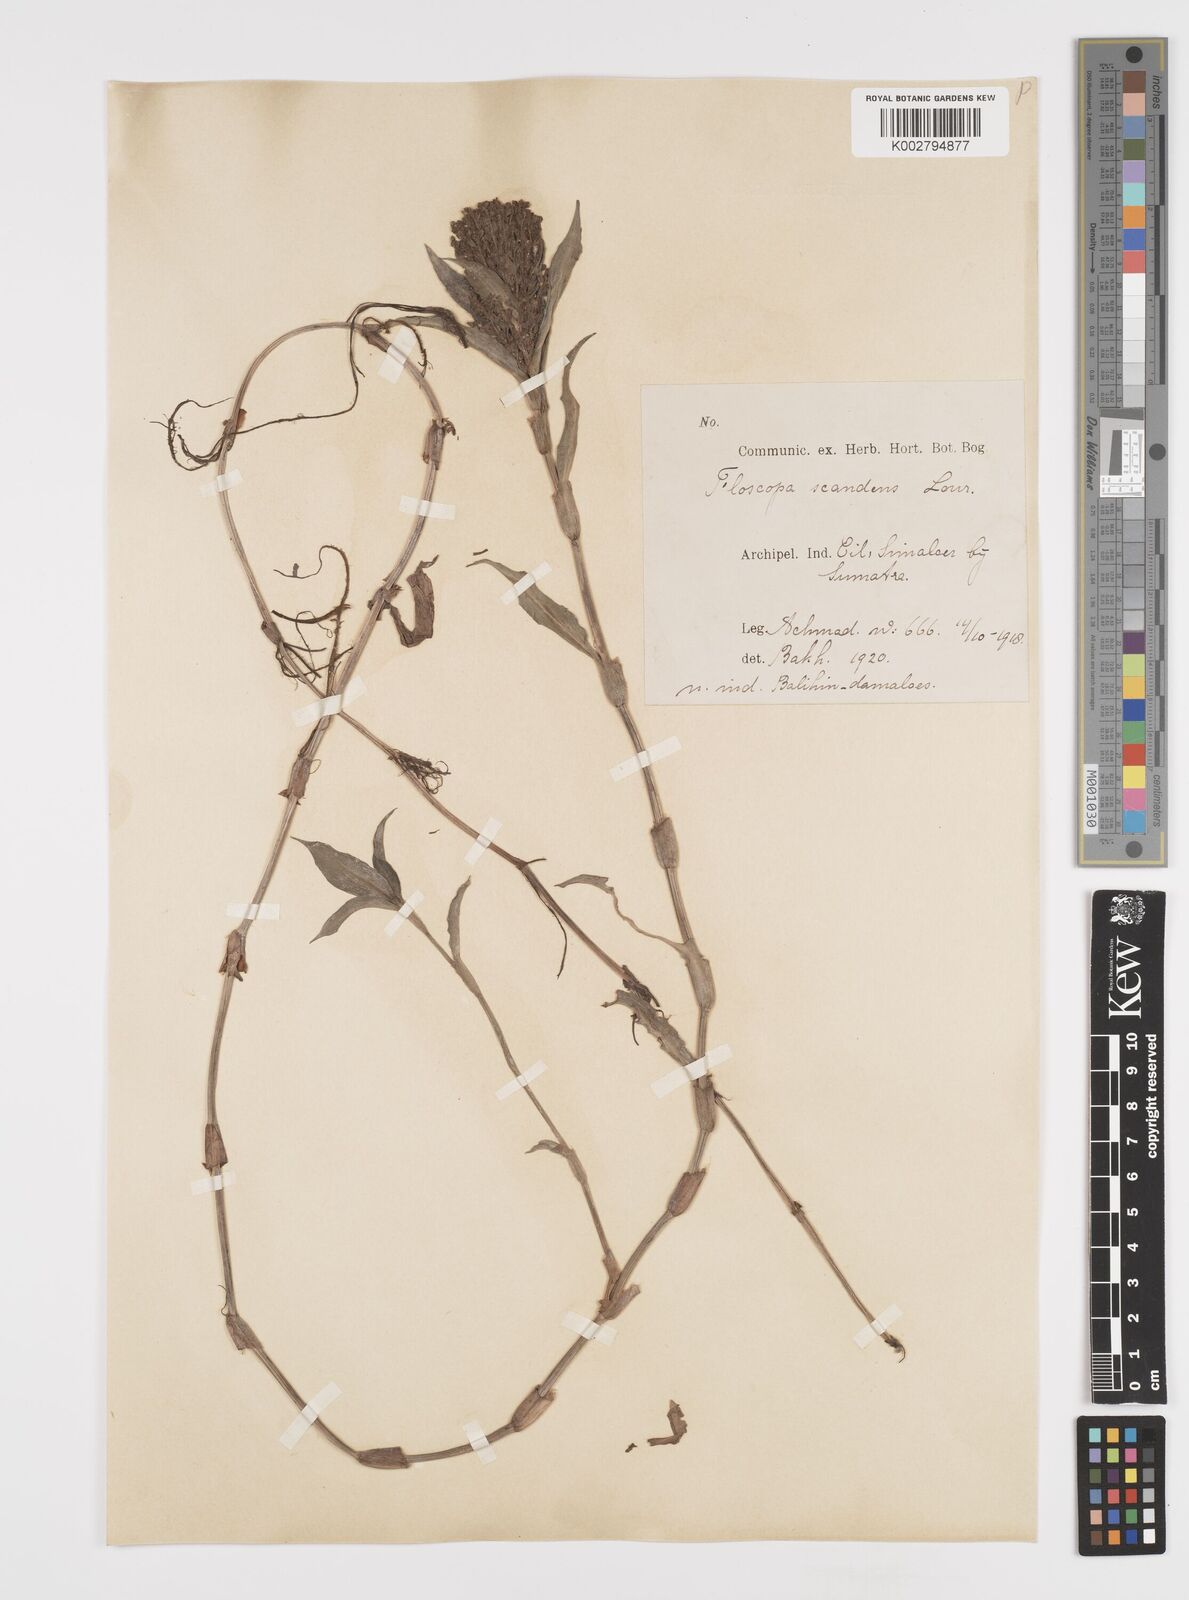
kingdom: Plantae
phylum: Tracheophyta
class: Liliopsida
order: Commelinales
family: Commelinaceae
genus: Floscopa
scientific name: Floscopa scandens
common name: Climbing flower cup
